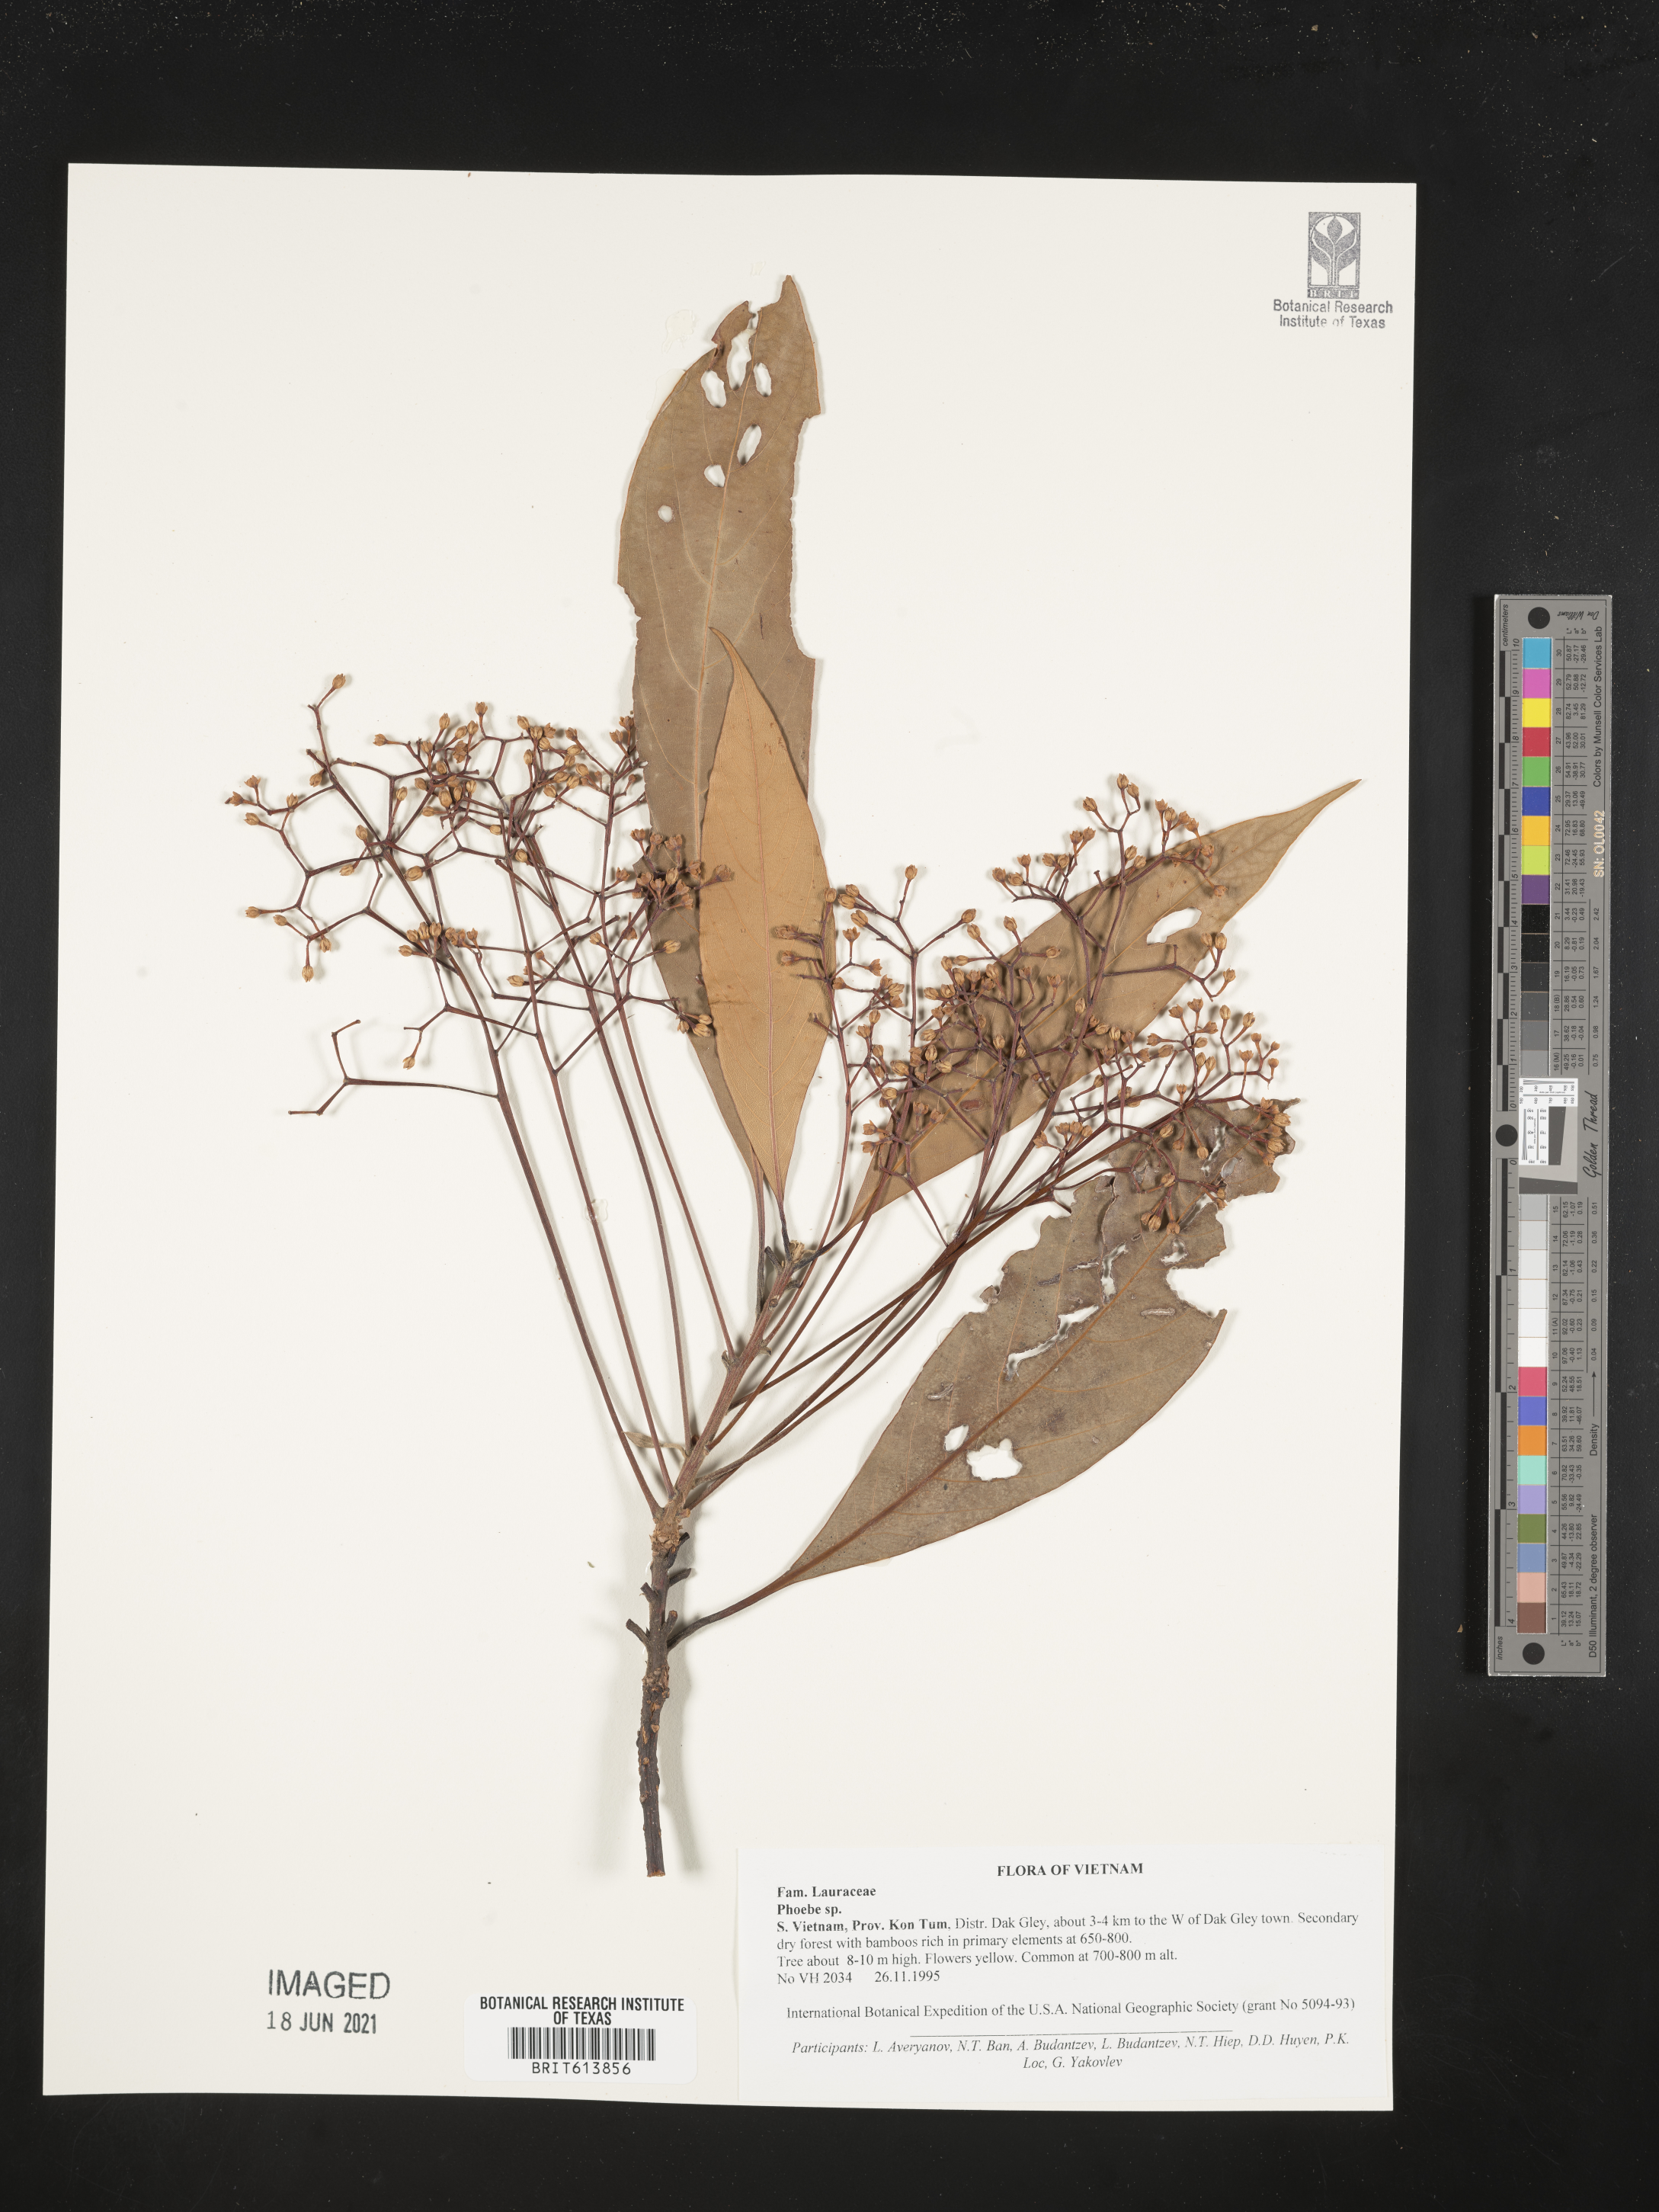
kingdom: Plantae
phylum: Tracheophyta
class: Magnoliopsida
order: Laurales
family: Lauraceae
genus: Phoebe
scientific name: Phoebe
